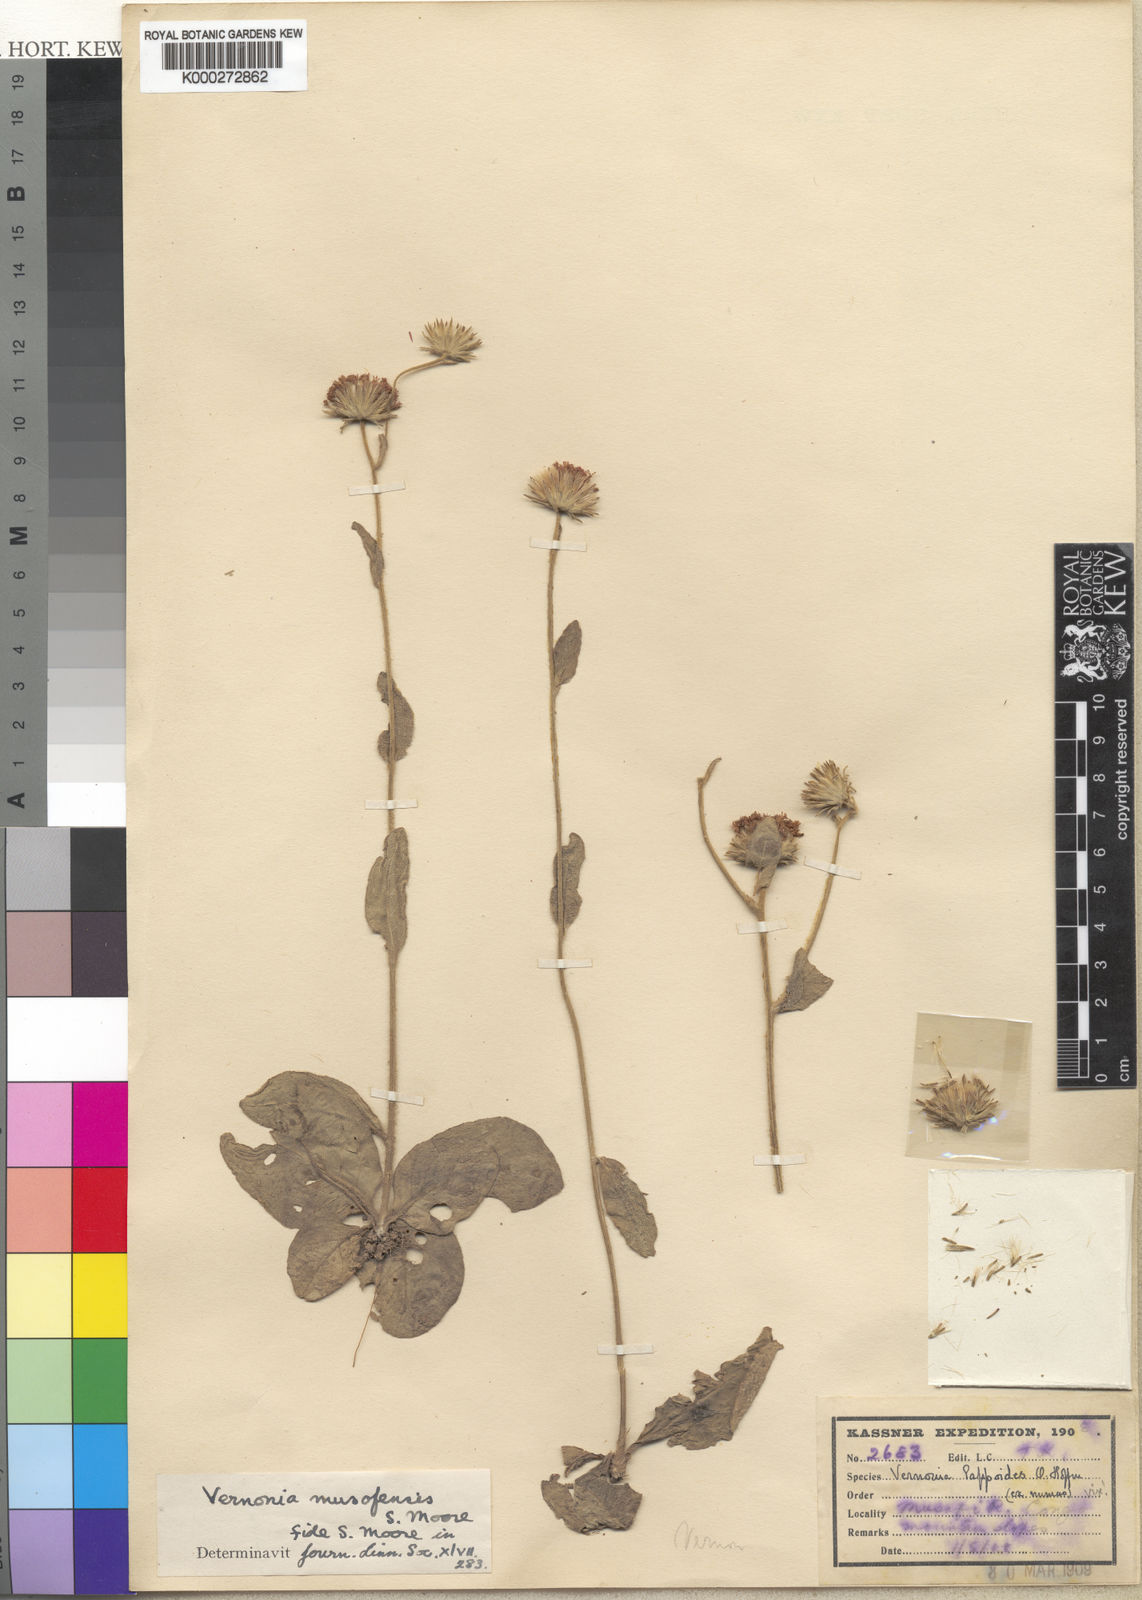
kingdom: Plantae
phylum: Tracheophyta
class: Magnoliopsida
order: Asterales
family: Asteraceae
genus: Vernoniastrum
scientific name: Vernoniastrum musofense
